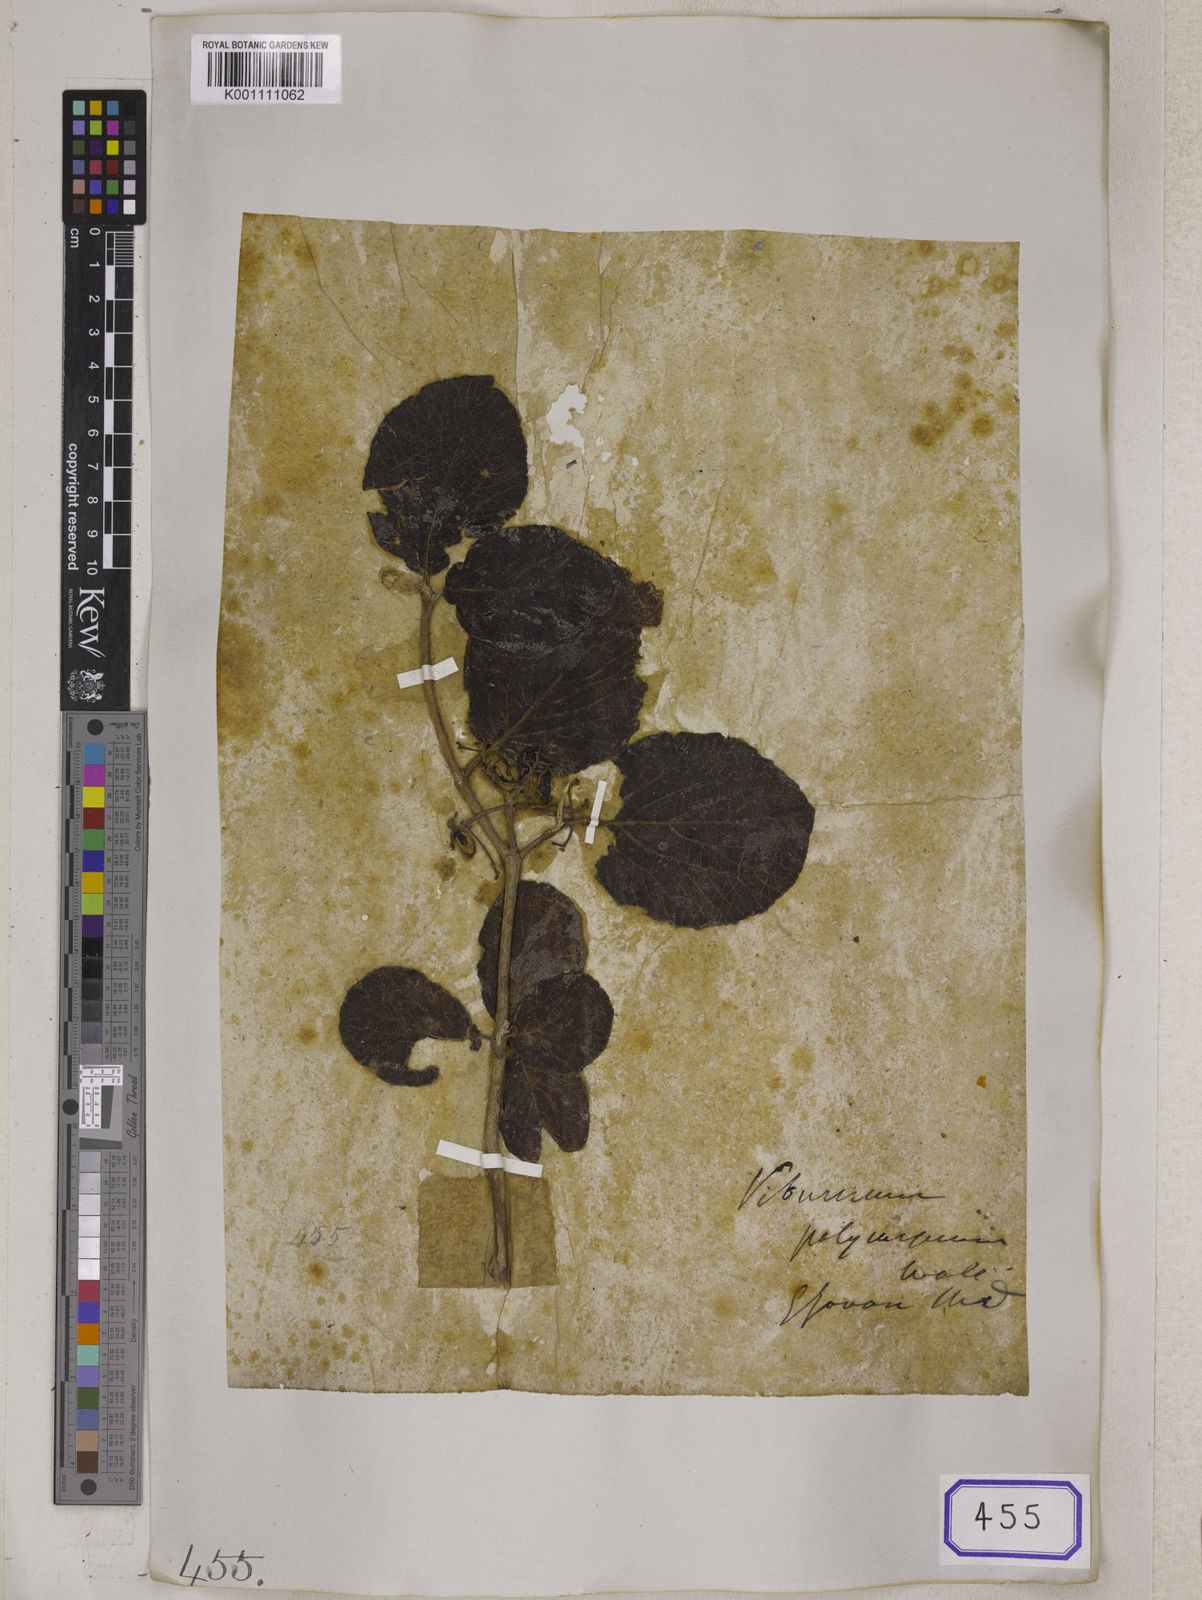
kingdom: Plantae
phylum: Tracheophyta
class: Magnoliopsida
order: Dipsacales
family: Viburnaceae
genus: Viburnum
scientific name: Viburnum
